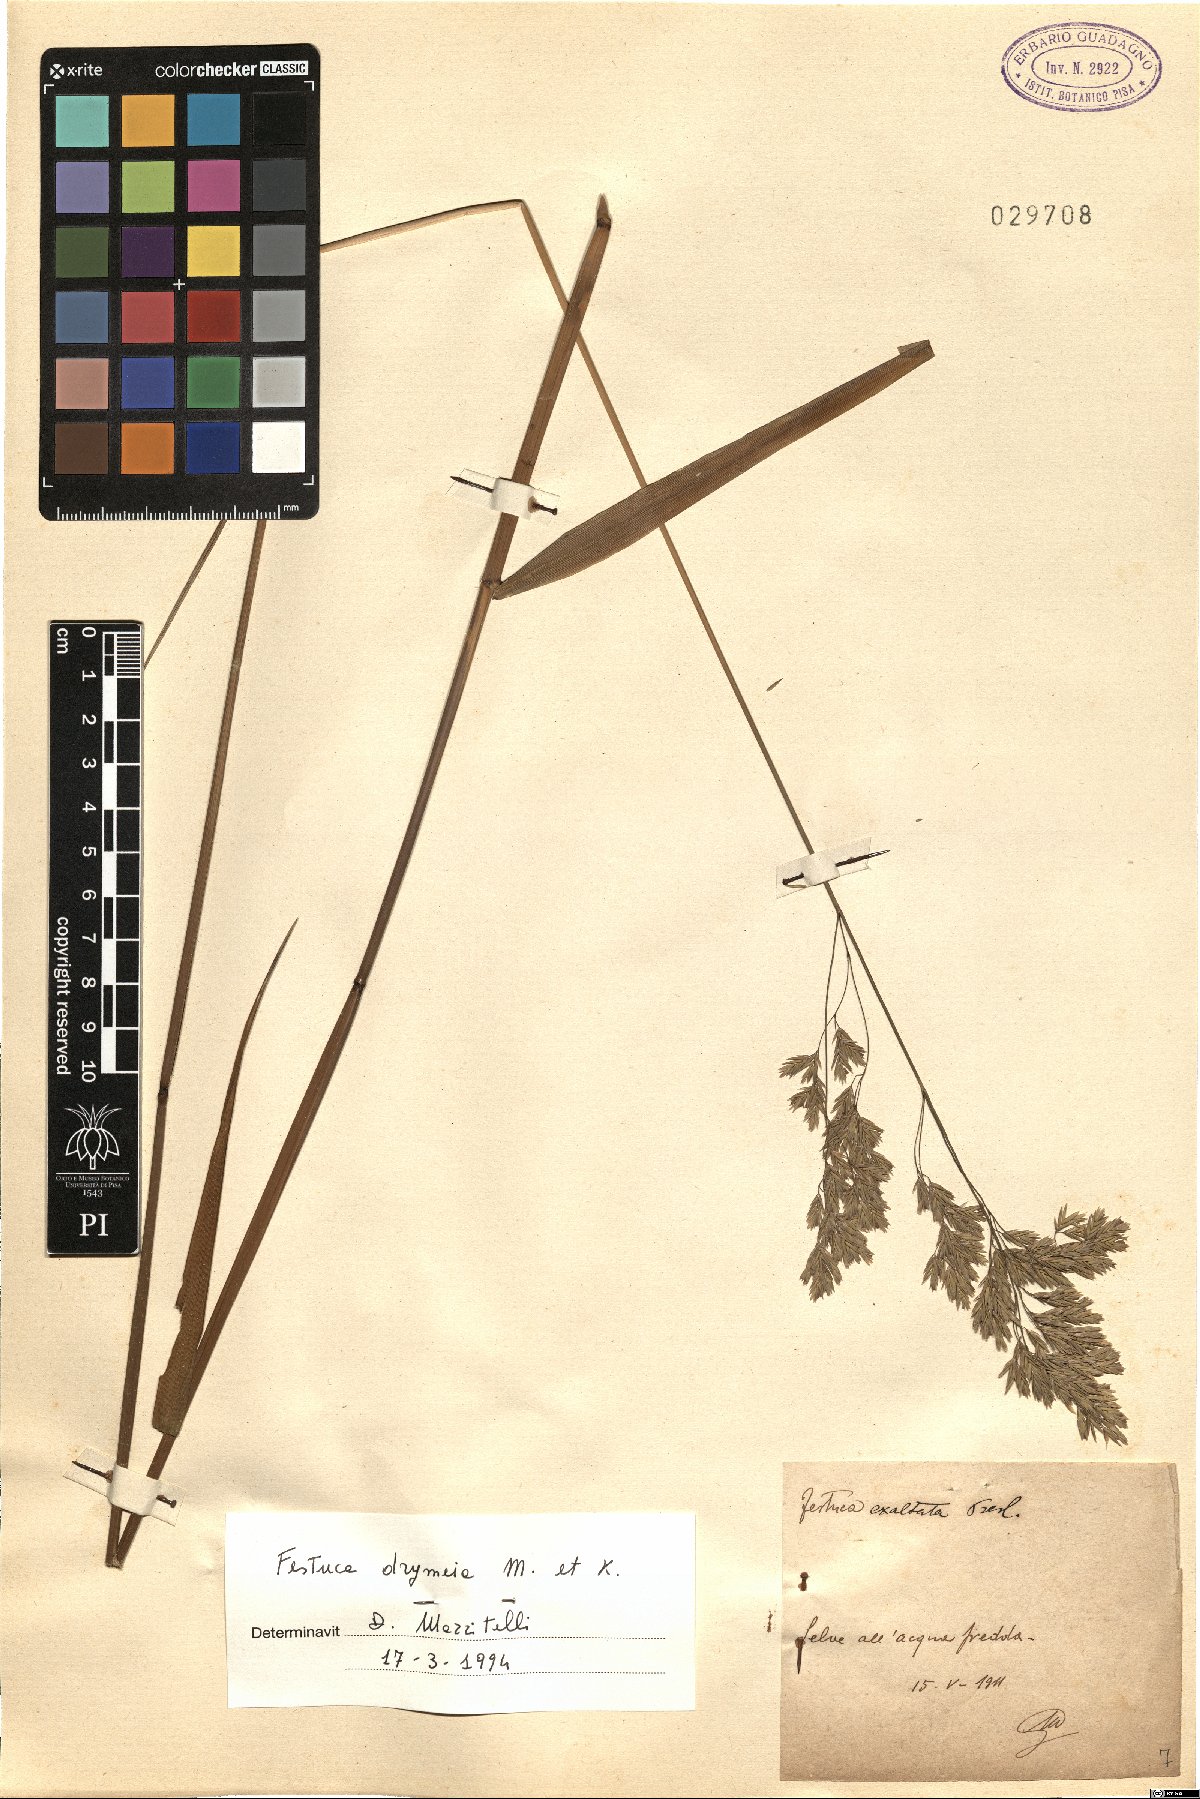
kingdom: Plantae
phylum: Tracheophyta
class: Liliopsida
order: Poales
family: Poaceae
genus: Festuca
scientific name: Festuca drymeja
